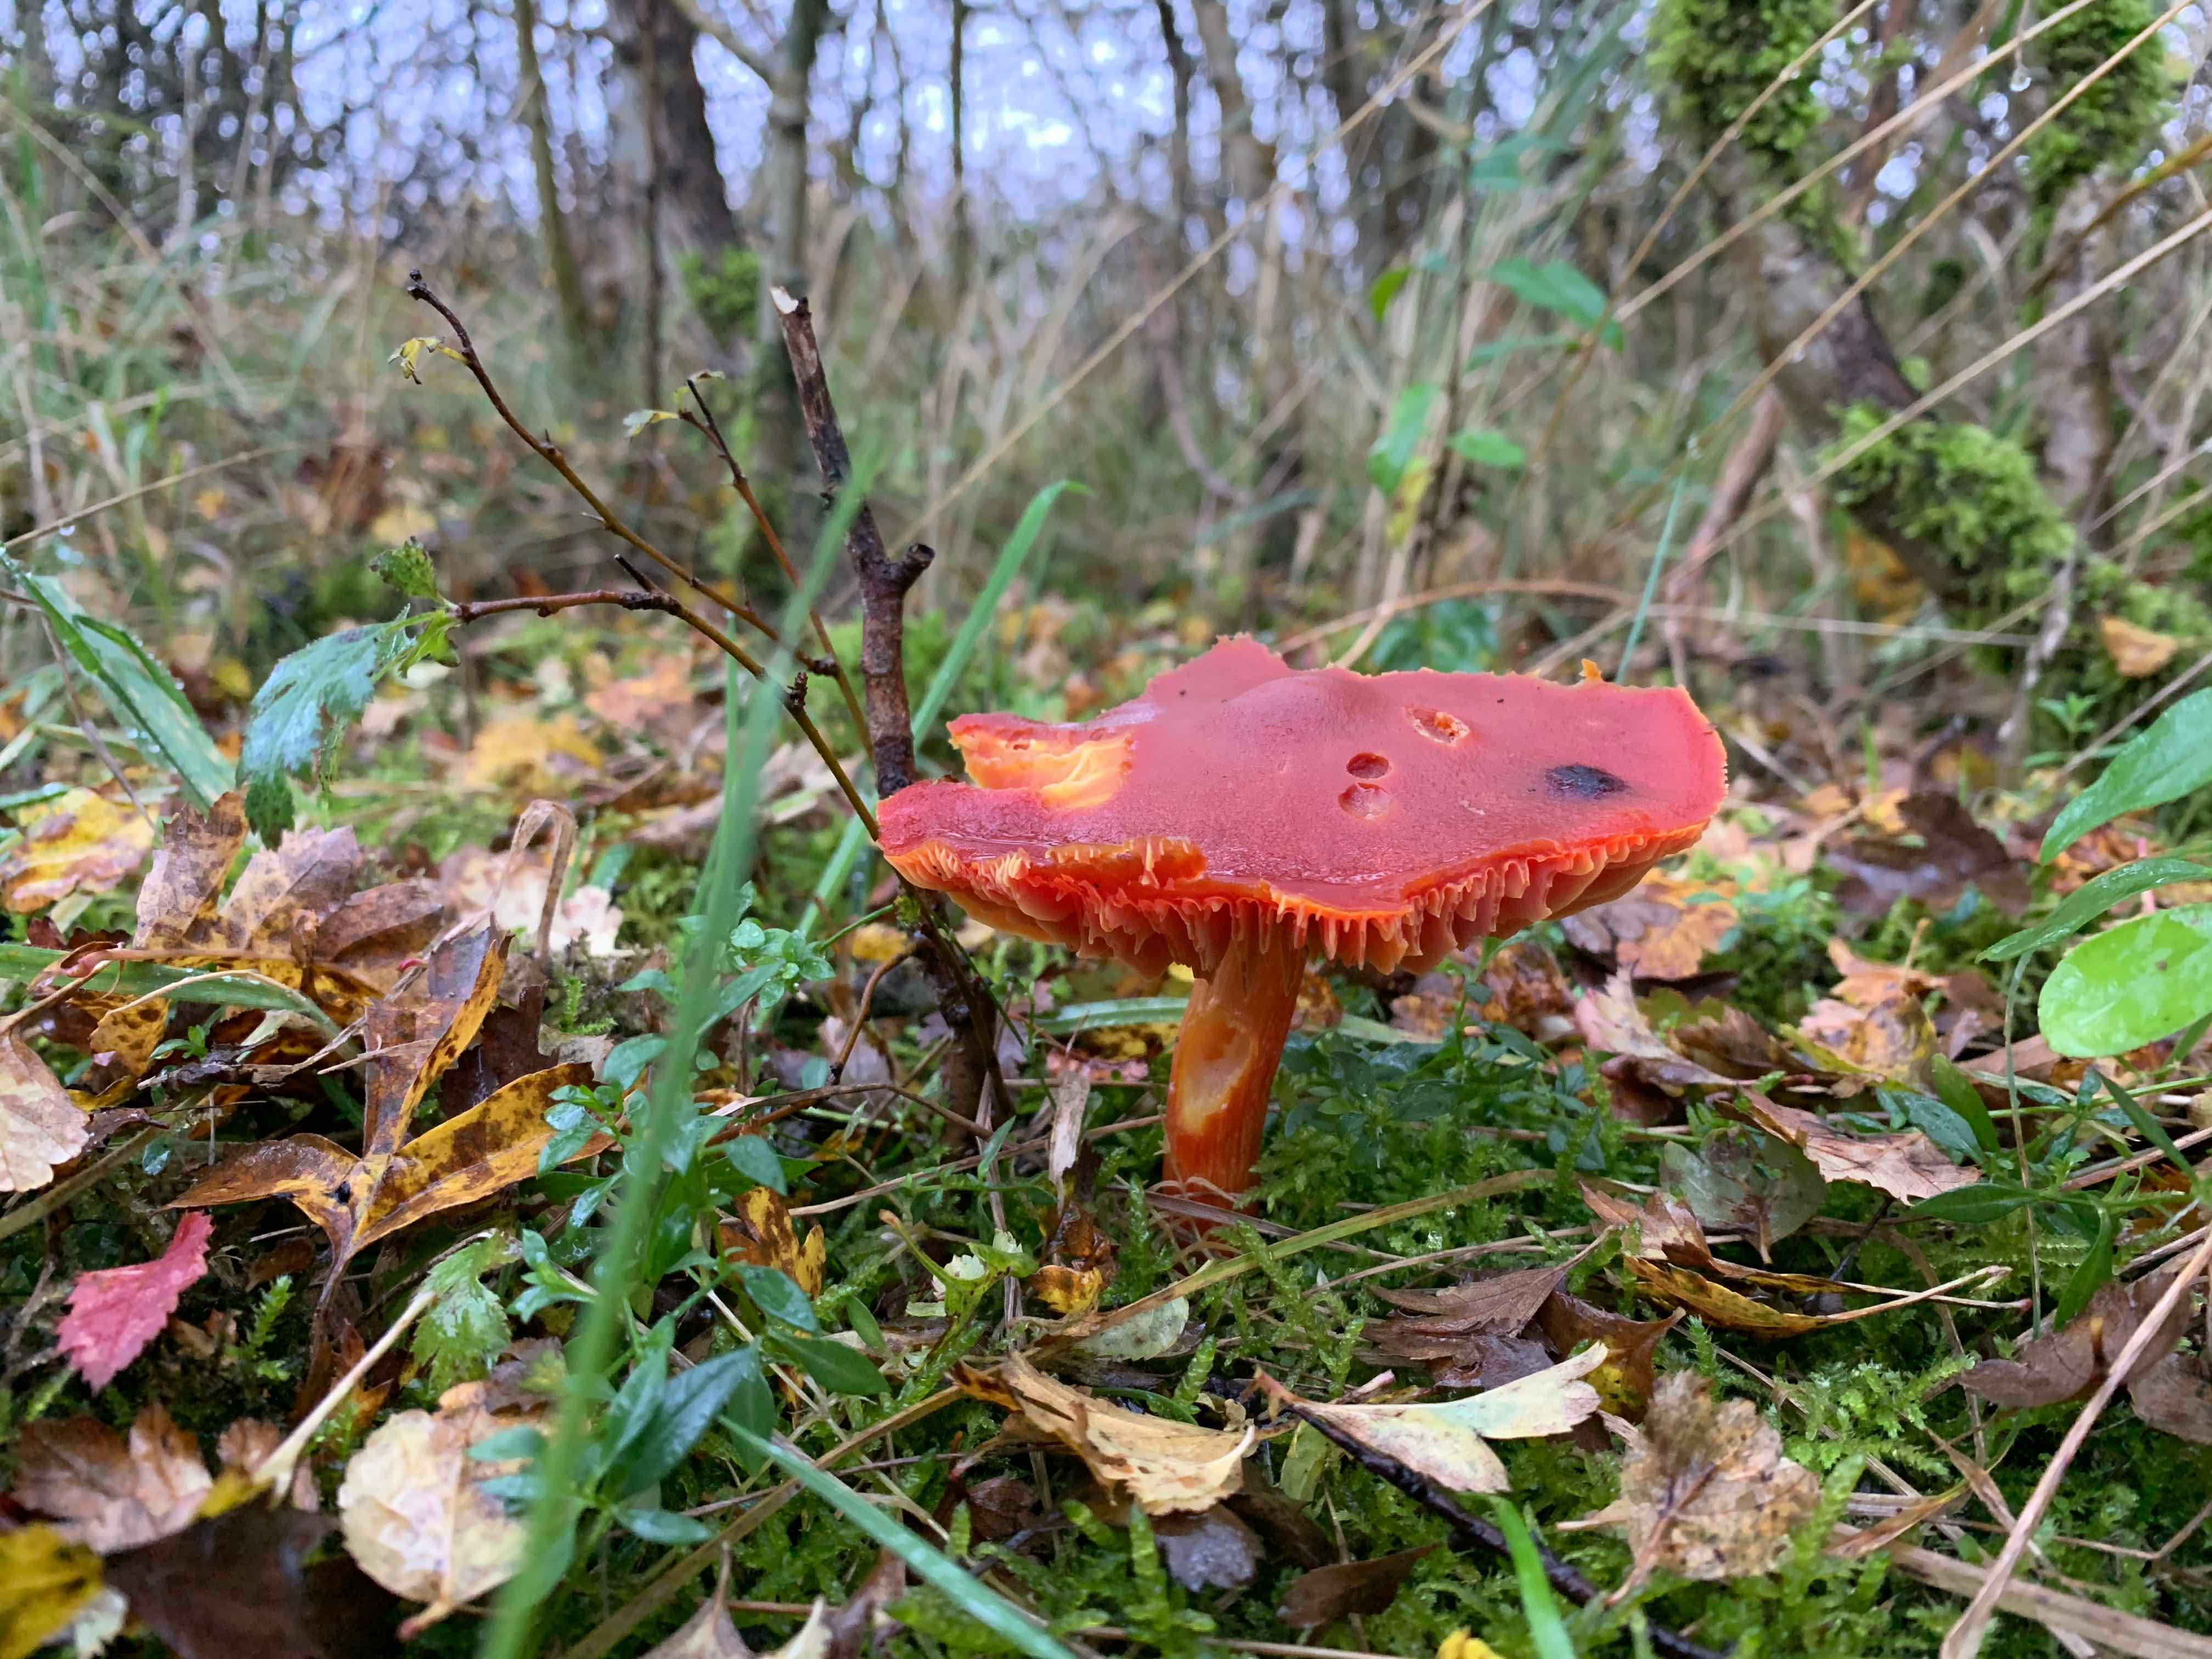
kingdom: Fungi
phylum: Basidiomycota
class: Agaricomycetes
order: Agaricales
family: Hygrophoraceae
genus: Hygrocybe
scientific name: Hygrocybe punicea
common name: skarlagen-vokshat
